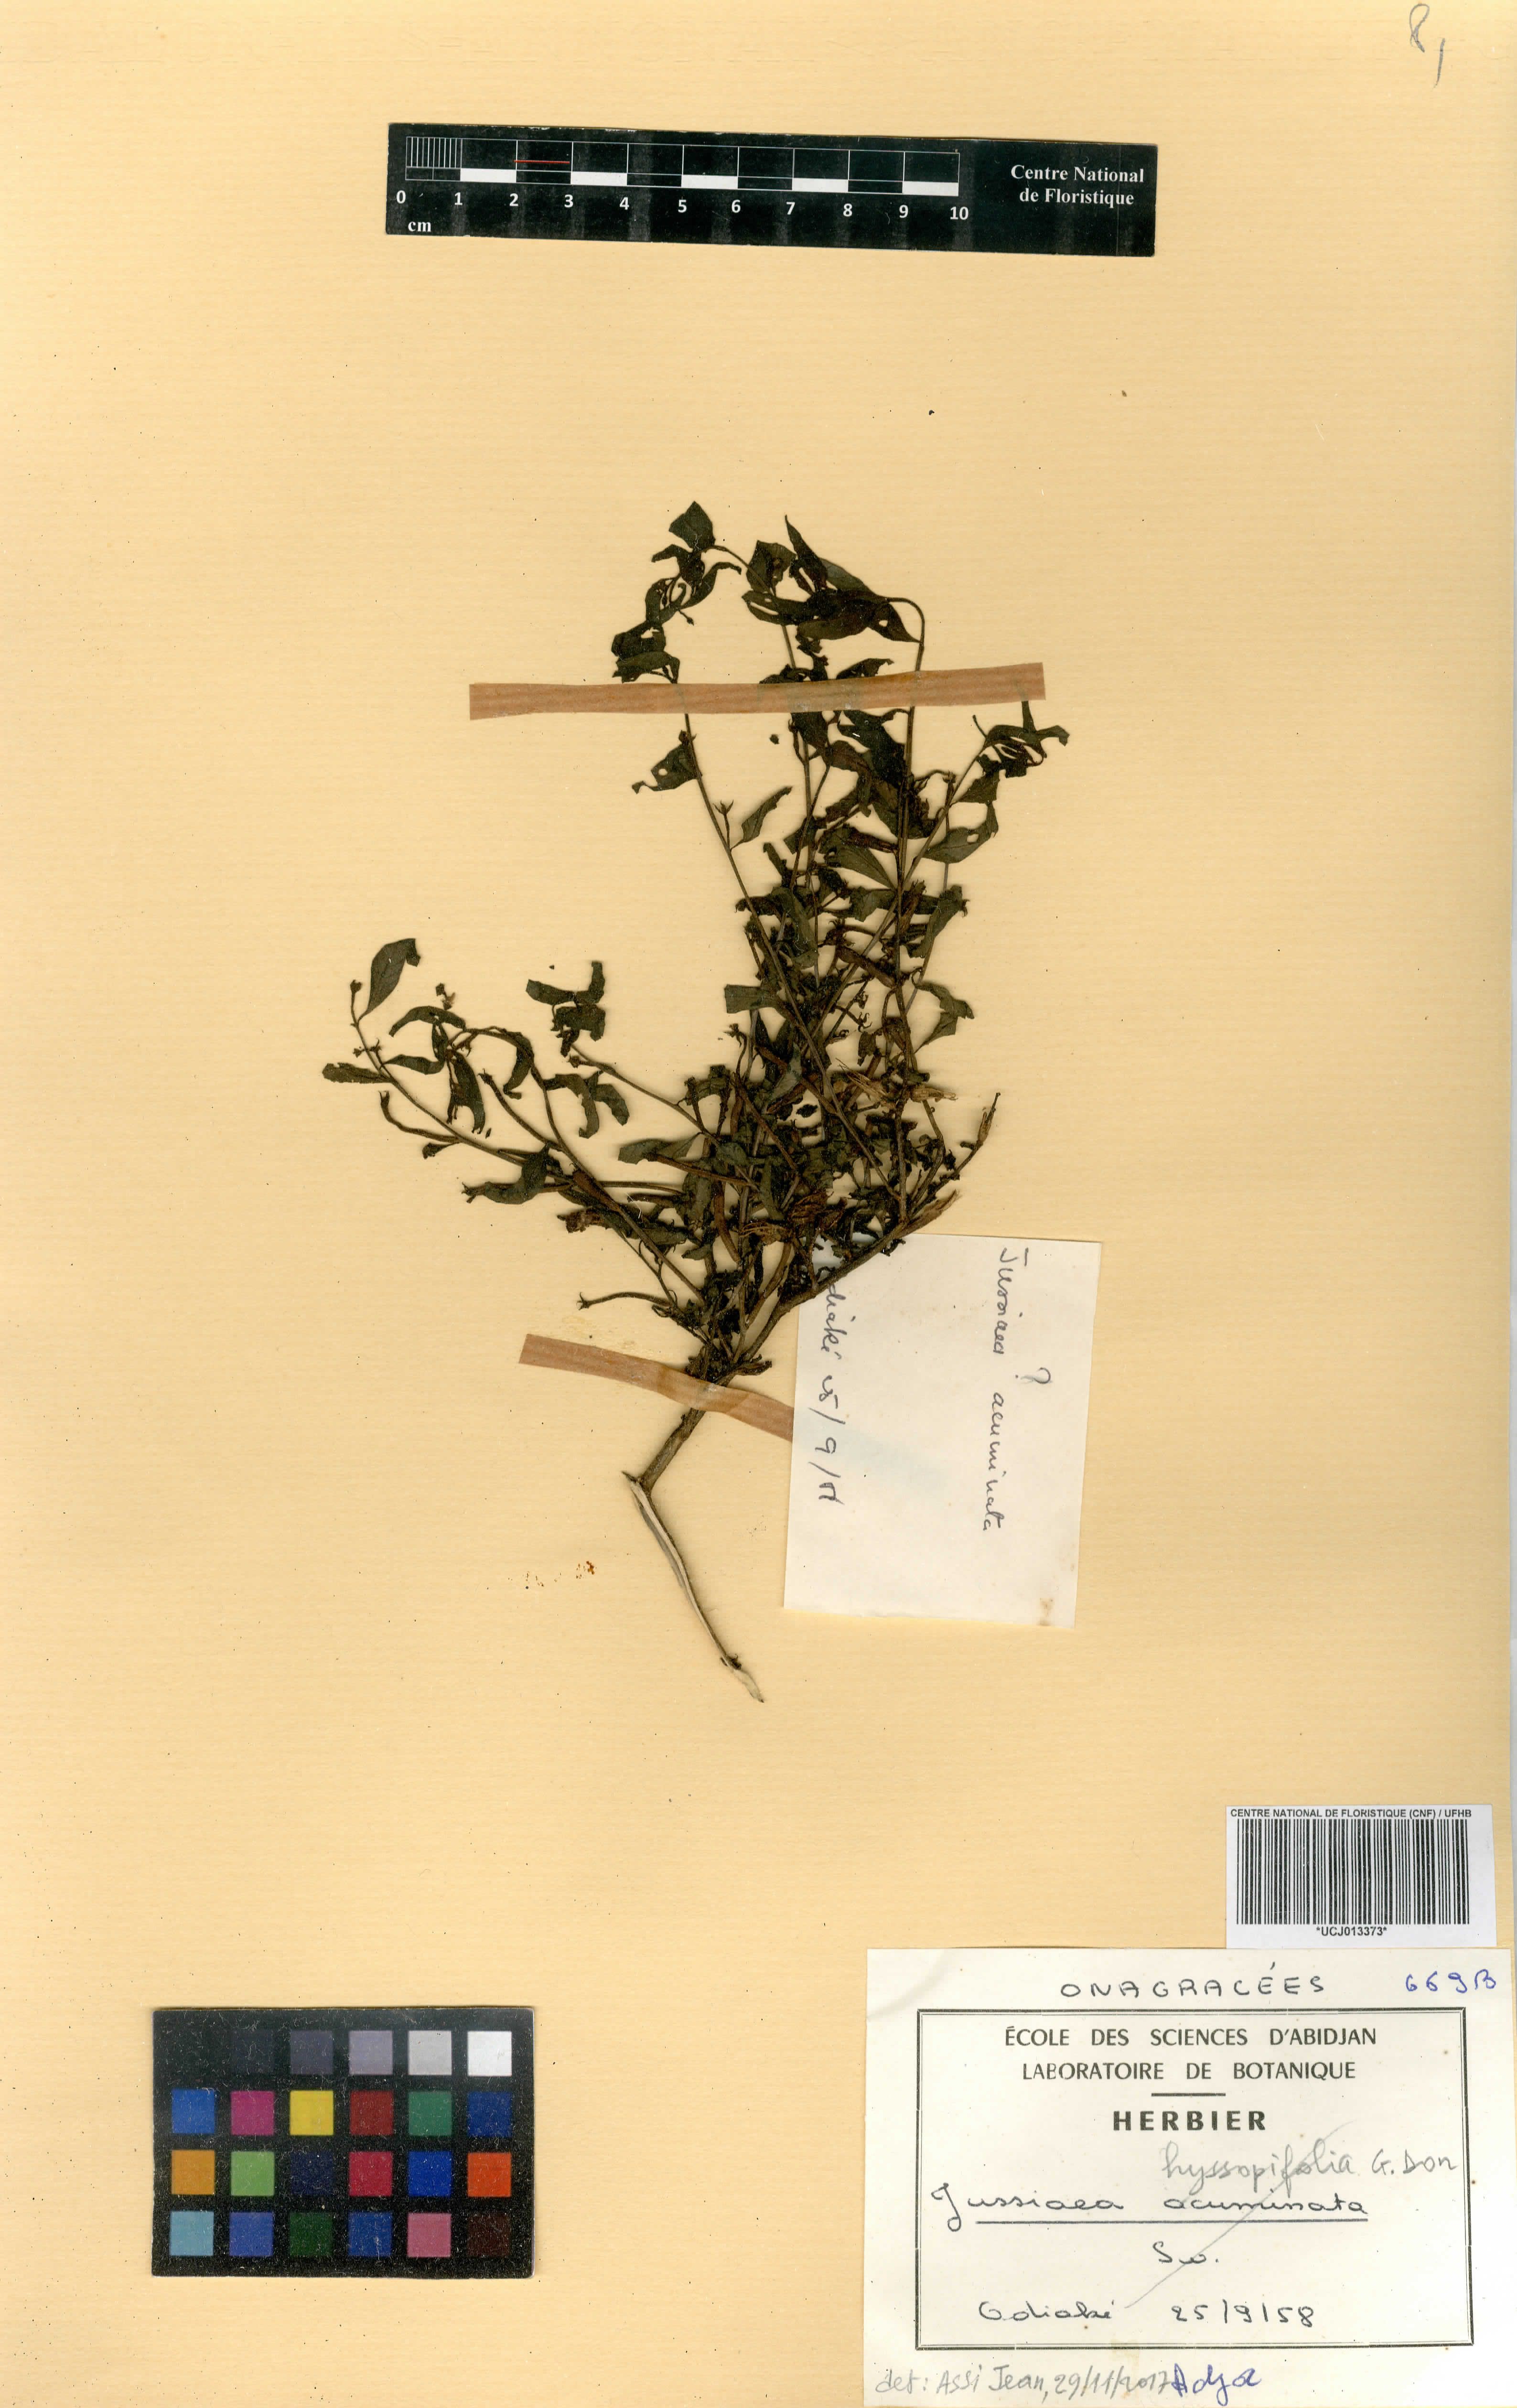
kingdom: Plantae
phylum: Tracheophyta
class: Magnoliopsida
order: Myrtales
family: Onagraceae
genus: Ludwigia
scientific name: Ludwigia adscendens
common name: Creeping water primrose
